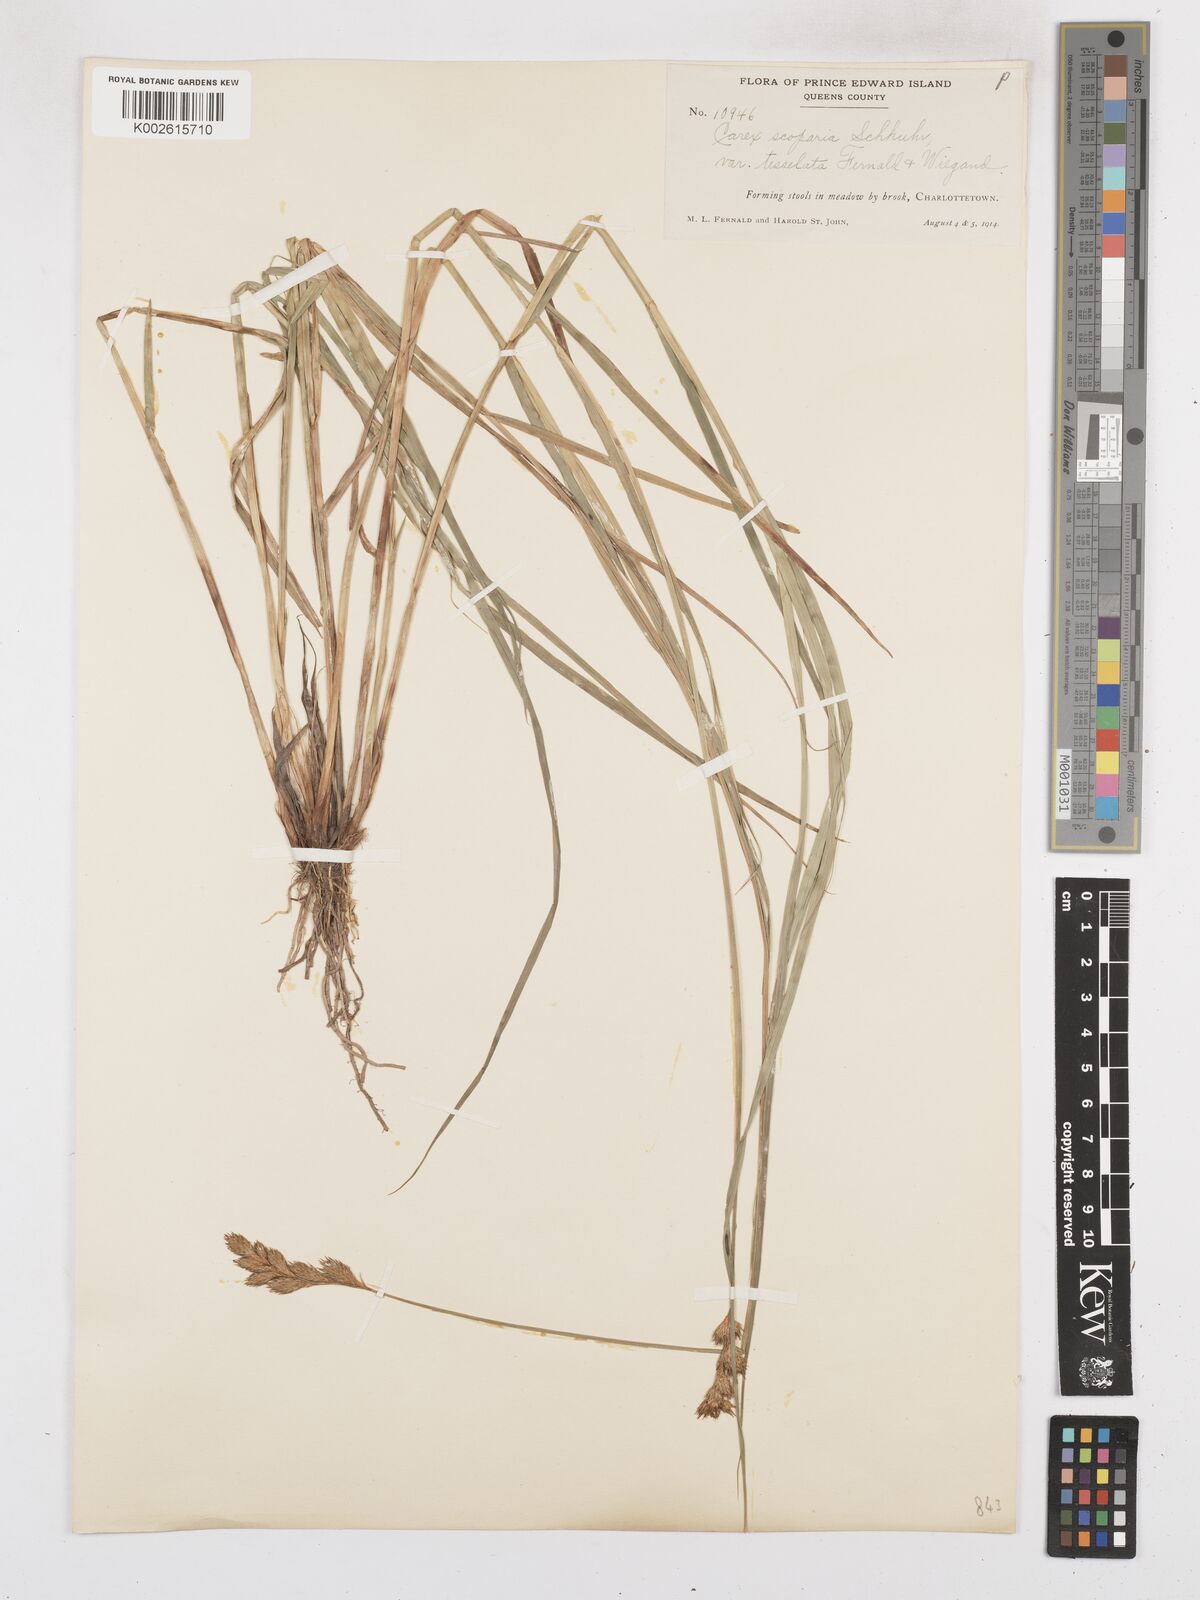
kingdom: Plantae
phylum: Tracheophyta
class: Liliopsida
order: Poales
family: Cyperaceae
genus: Carex
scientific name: Carex leporina
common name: Oval sedge
